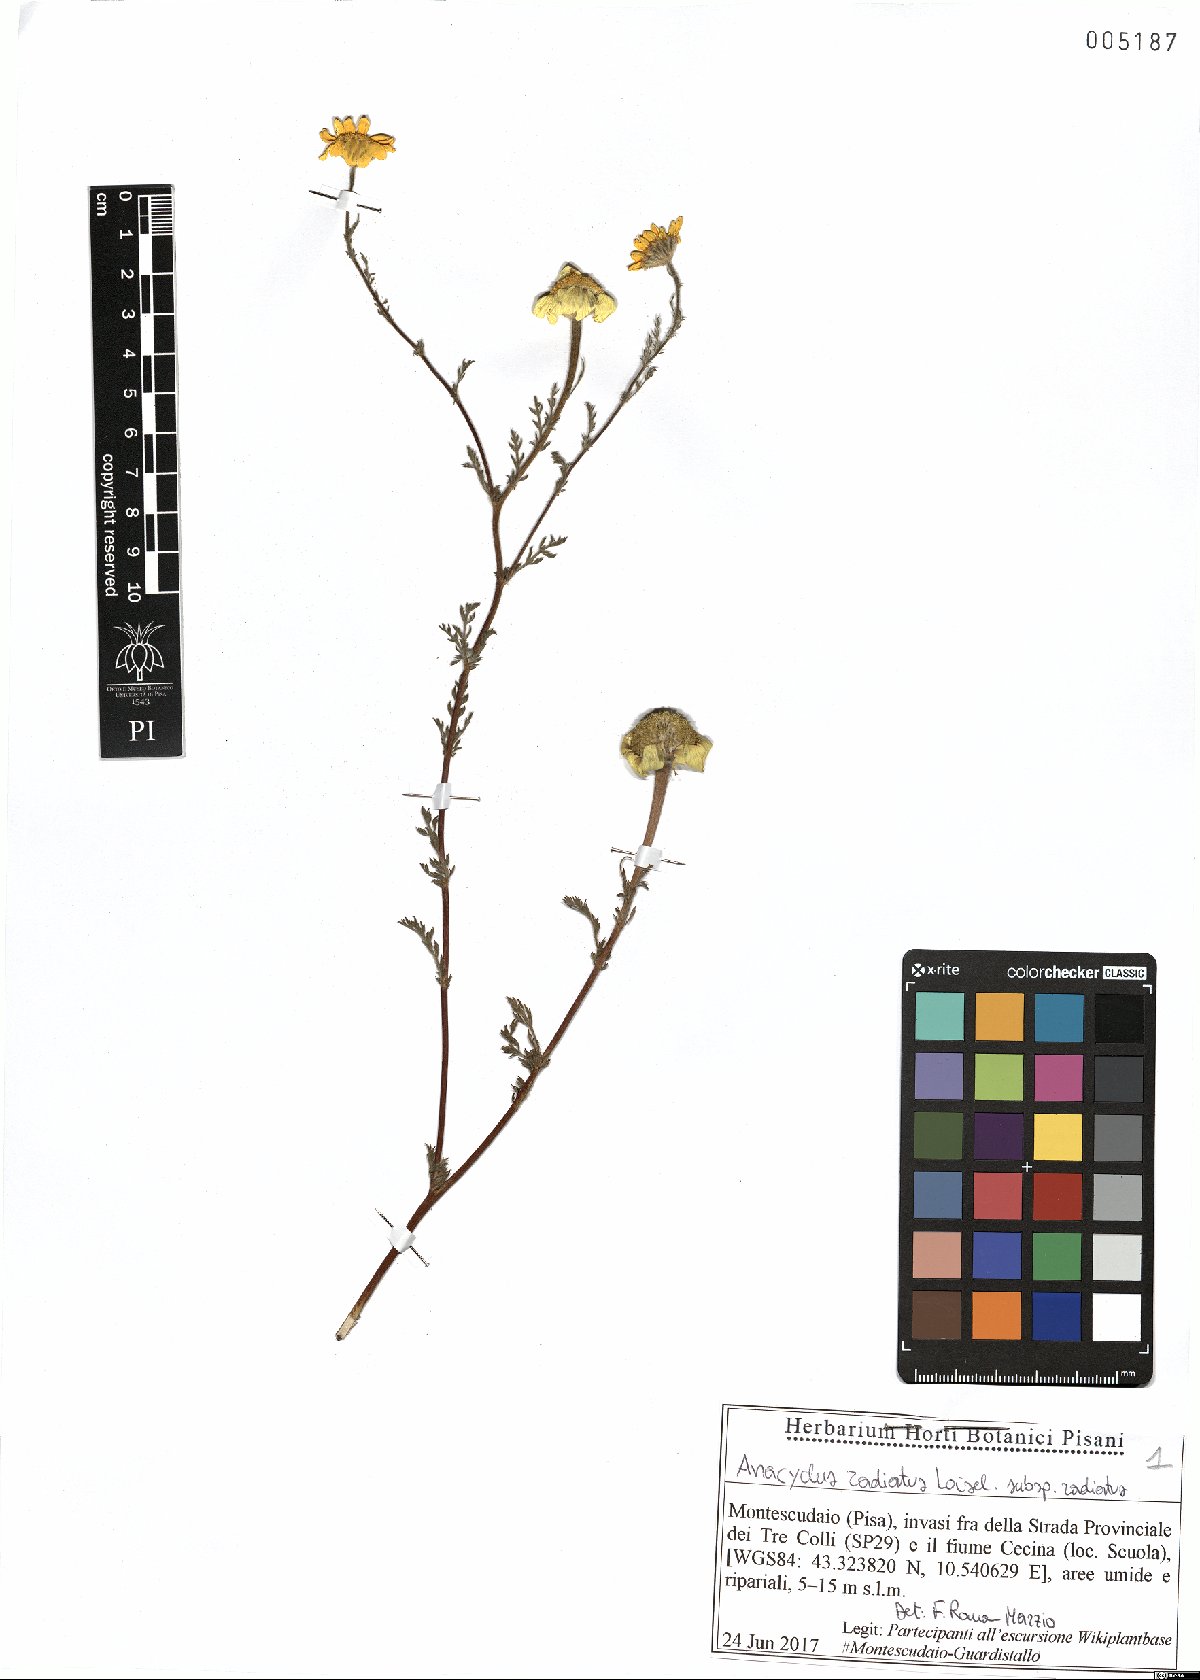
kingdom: Plantae
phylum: Tracheophyta
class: Magnoliopsida
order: Asterales
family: Asteraceae
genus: Anacyclus
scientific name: Anacyclus radiatus
